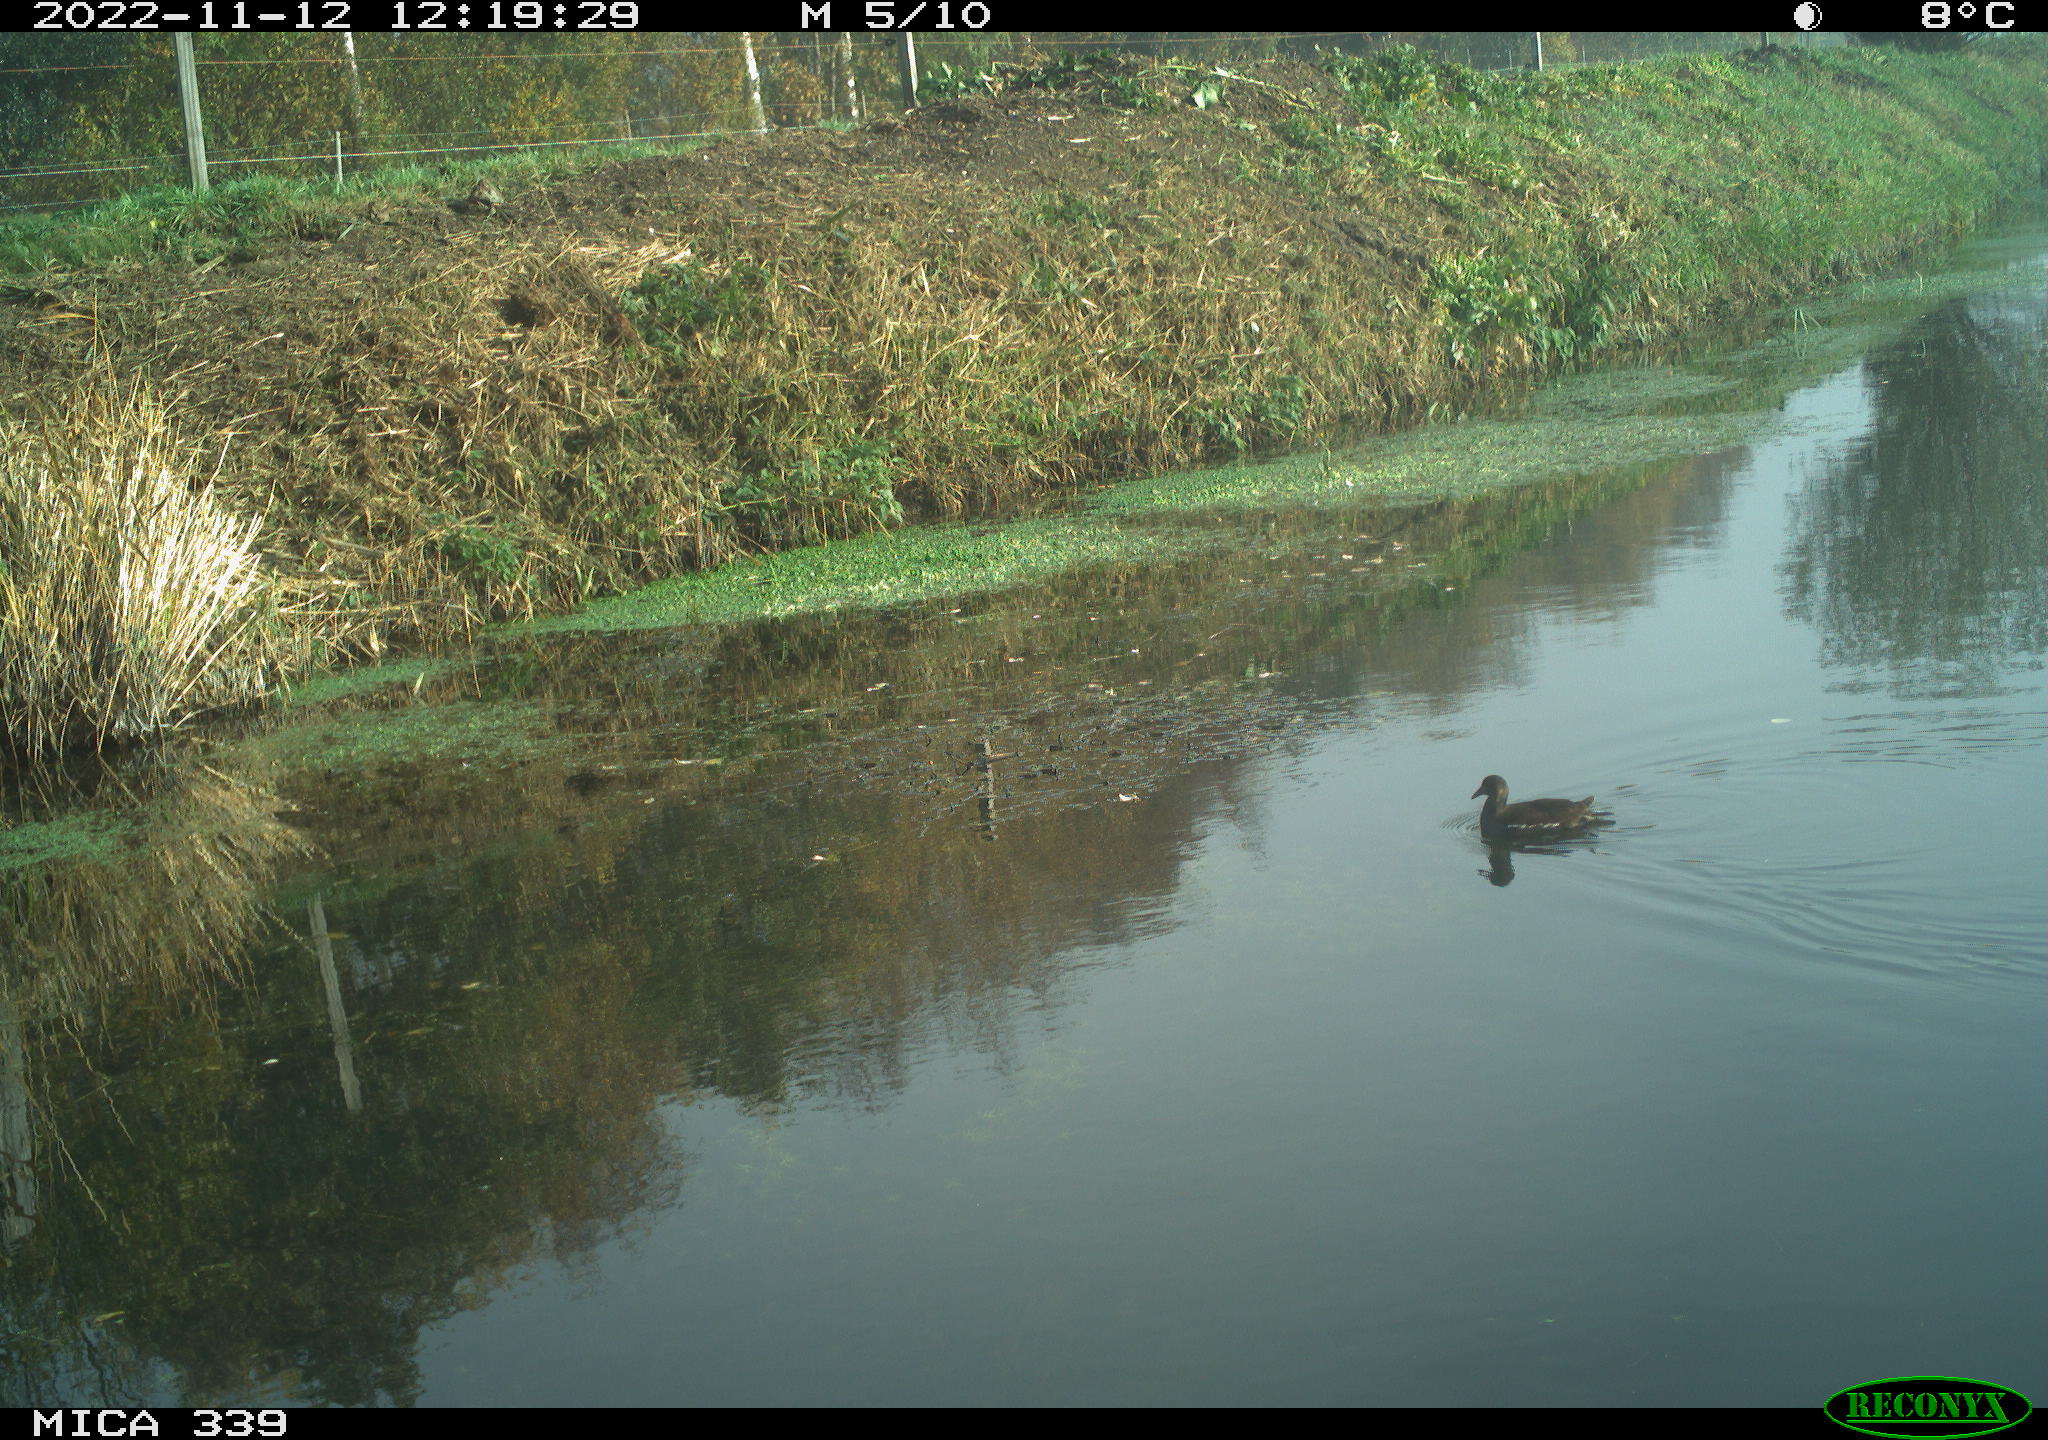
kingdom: Animalia
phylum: Chordata
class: Aves
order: Gruiformes
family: Rallidae
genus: Gallinula
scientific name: Gallinula chloropus
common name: Common moorhen
